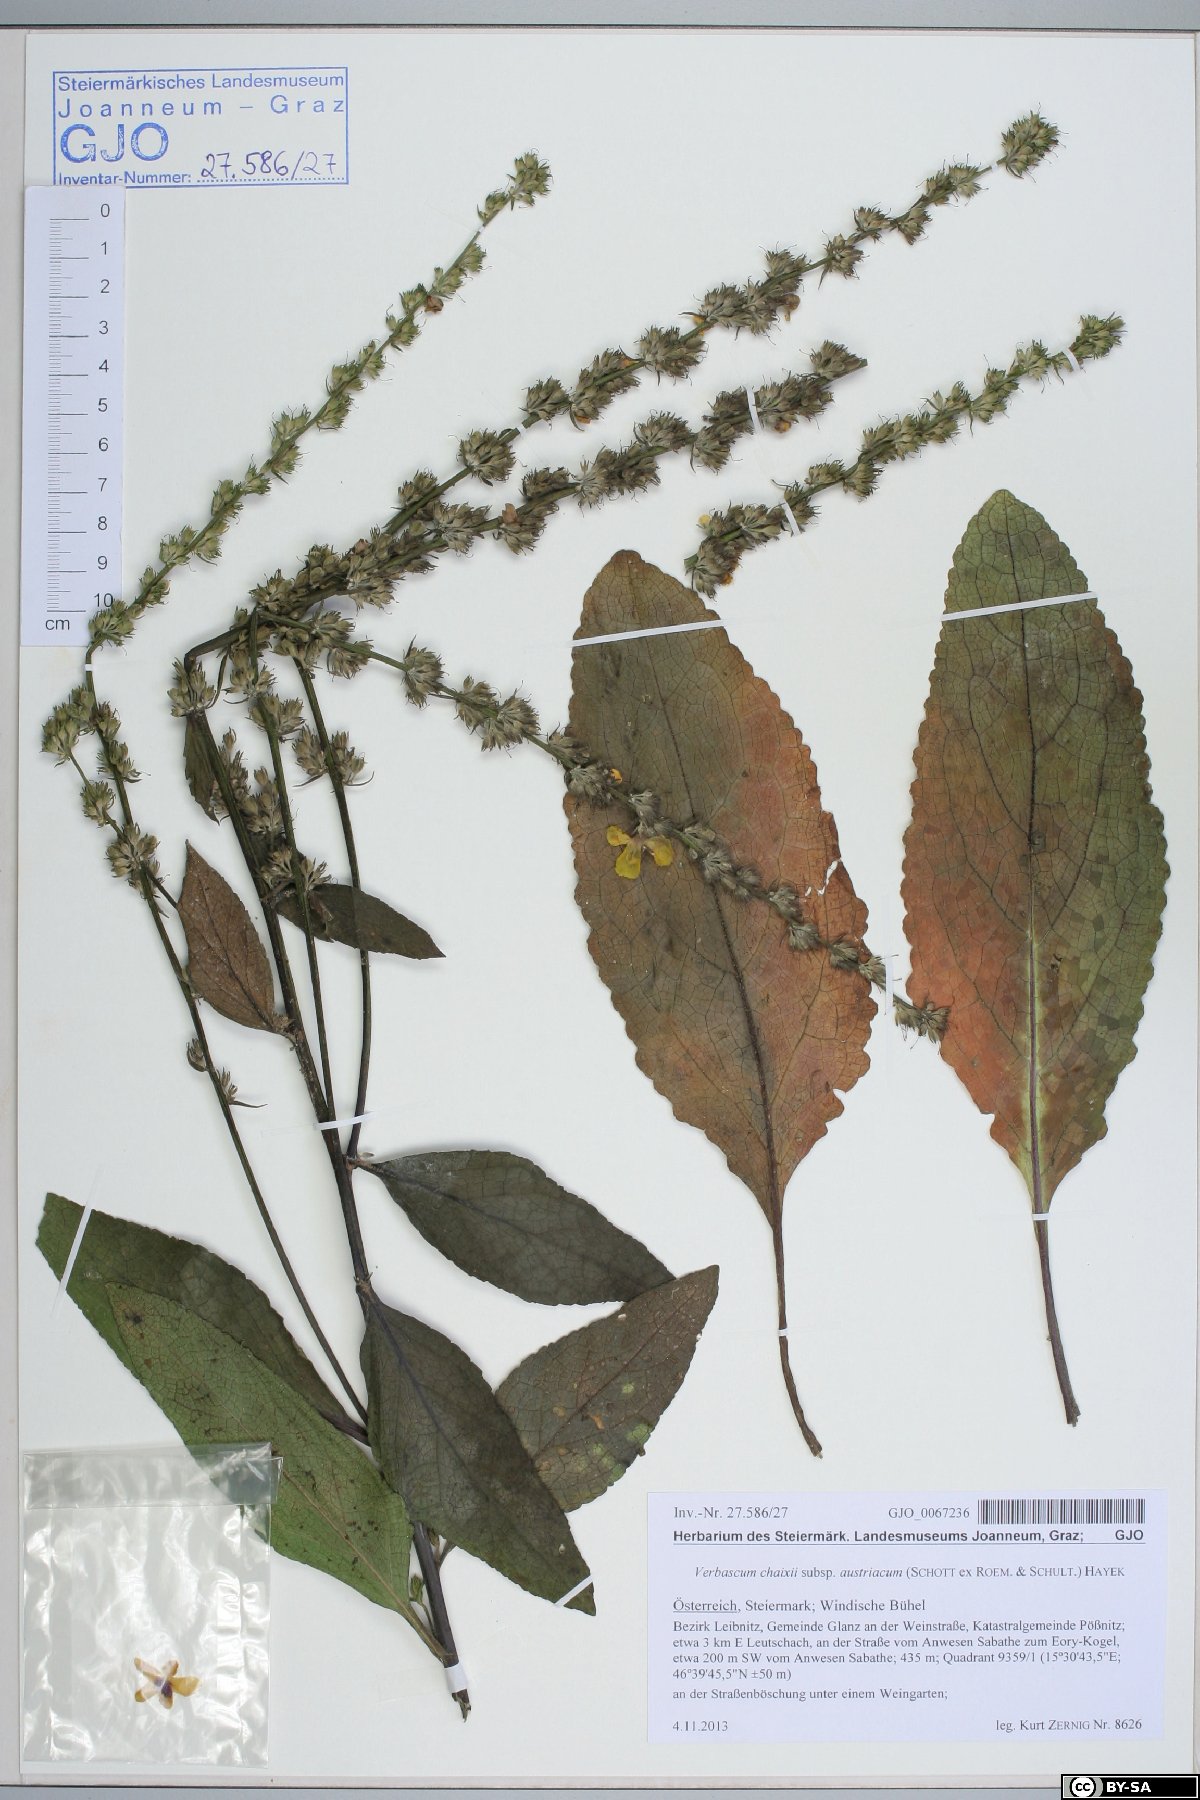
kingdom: Plantae
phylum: Tracheophyta
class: Magnoliopsida
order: Lamiales
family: Scrophulariaceae
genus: Verbascum
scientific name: Verbascum chaixii
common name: Nettle-leaved mullein
